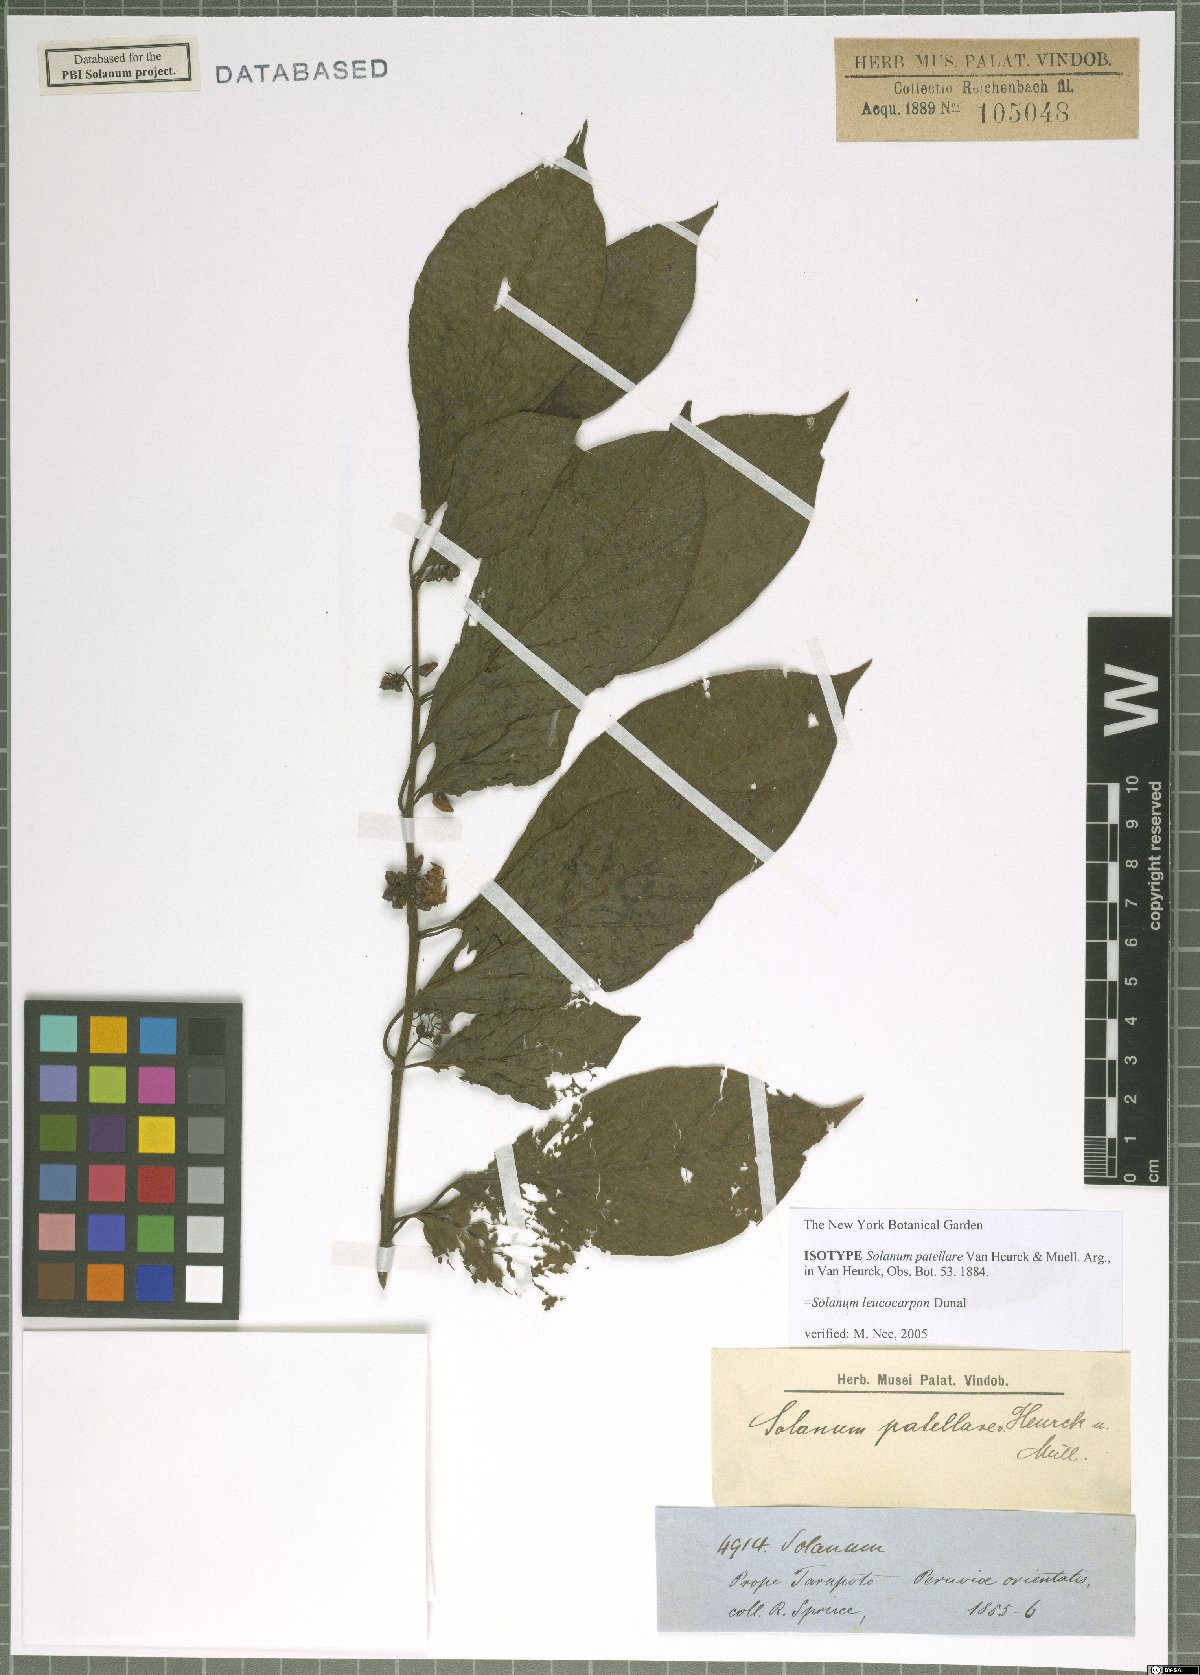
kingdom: Plantae
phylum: Tracheophyta
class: Magnoliopsida
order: Solanales
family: Solanaceae
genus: Solanum
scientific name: Solanum leucocarpon
